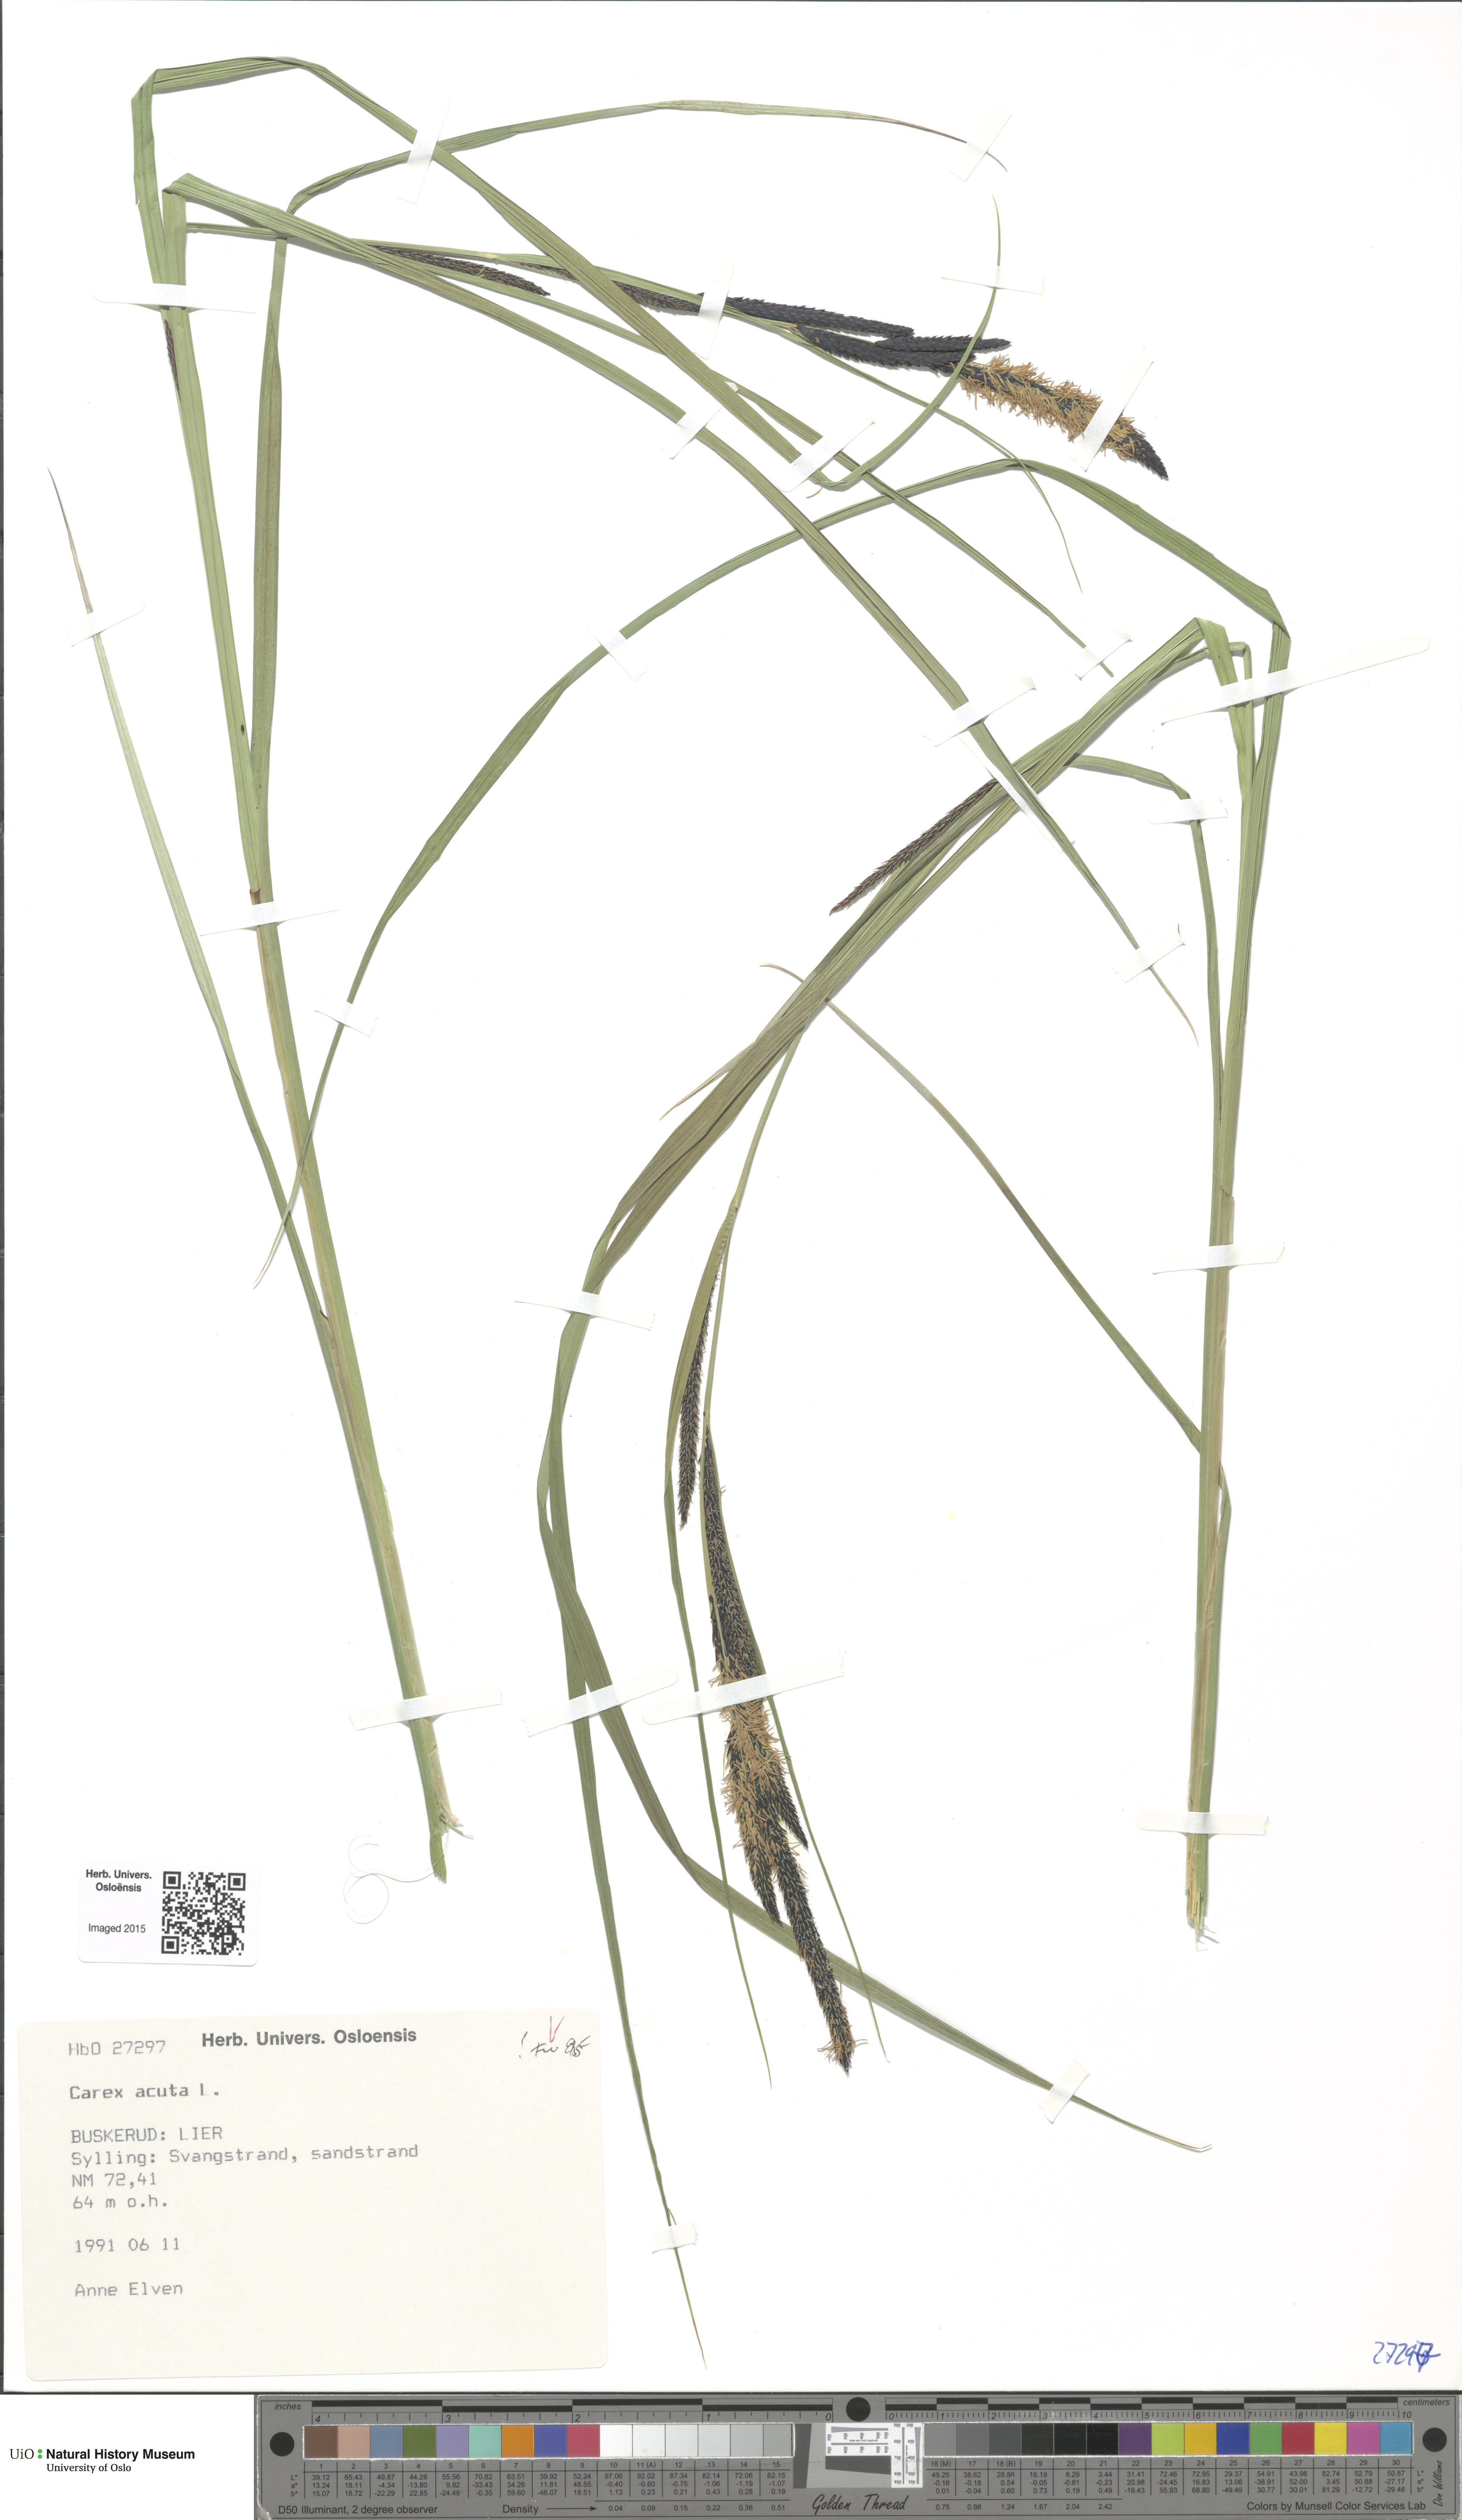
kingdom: Plantae
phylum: Tracheophyta
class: Liliopsida
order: Poales
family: Cyperaceae
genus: Carex
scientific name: Carex acuta
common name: Slender tufted-sedge
